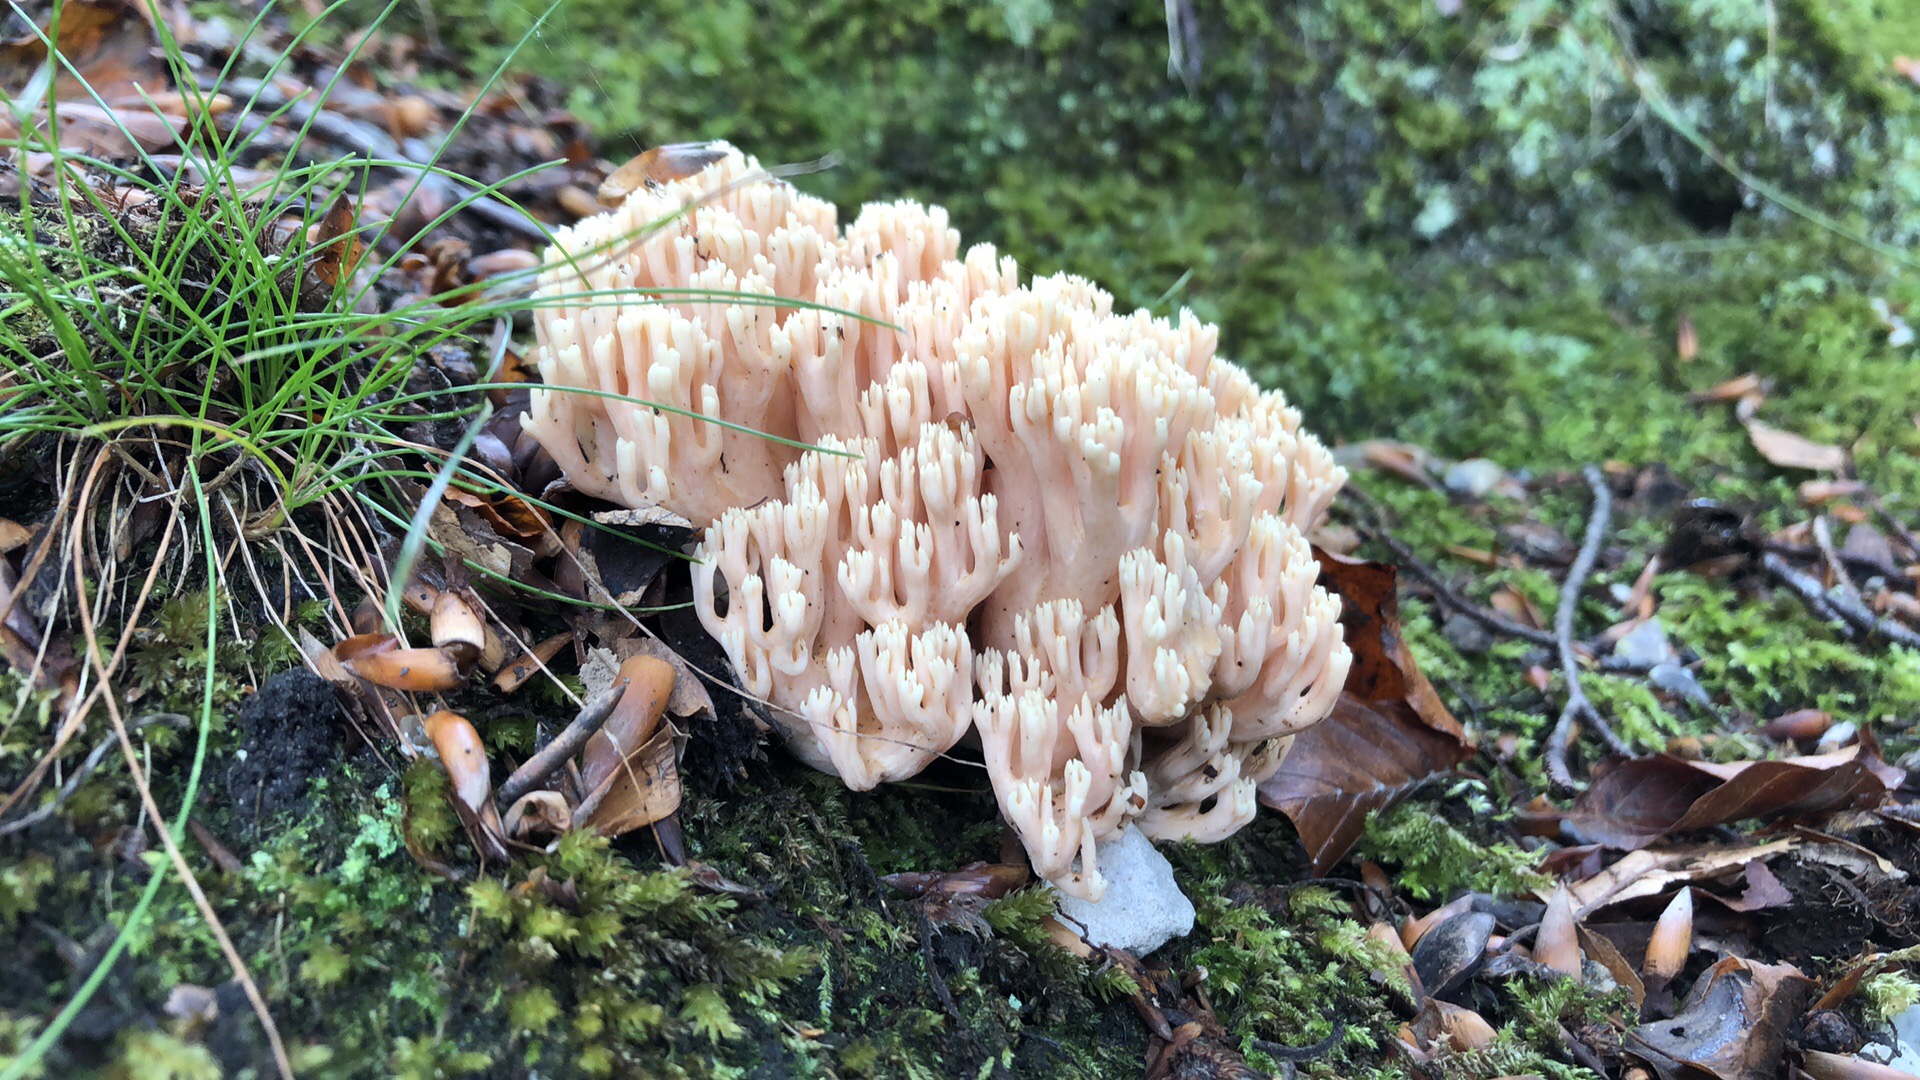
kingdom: Fungi
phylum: Basidiomycota
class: Agaricomycetes
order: Gomphales
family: Gomphaceae
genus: Ramaria
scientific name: Ramaria formosa
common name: smuk koralsvamp
